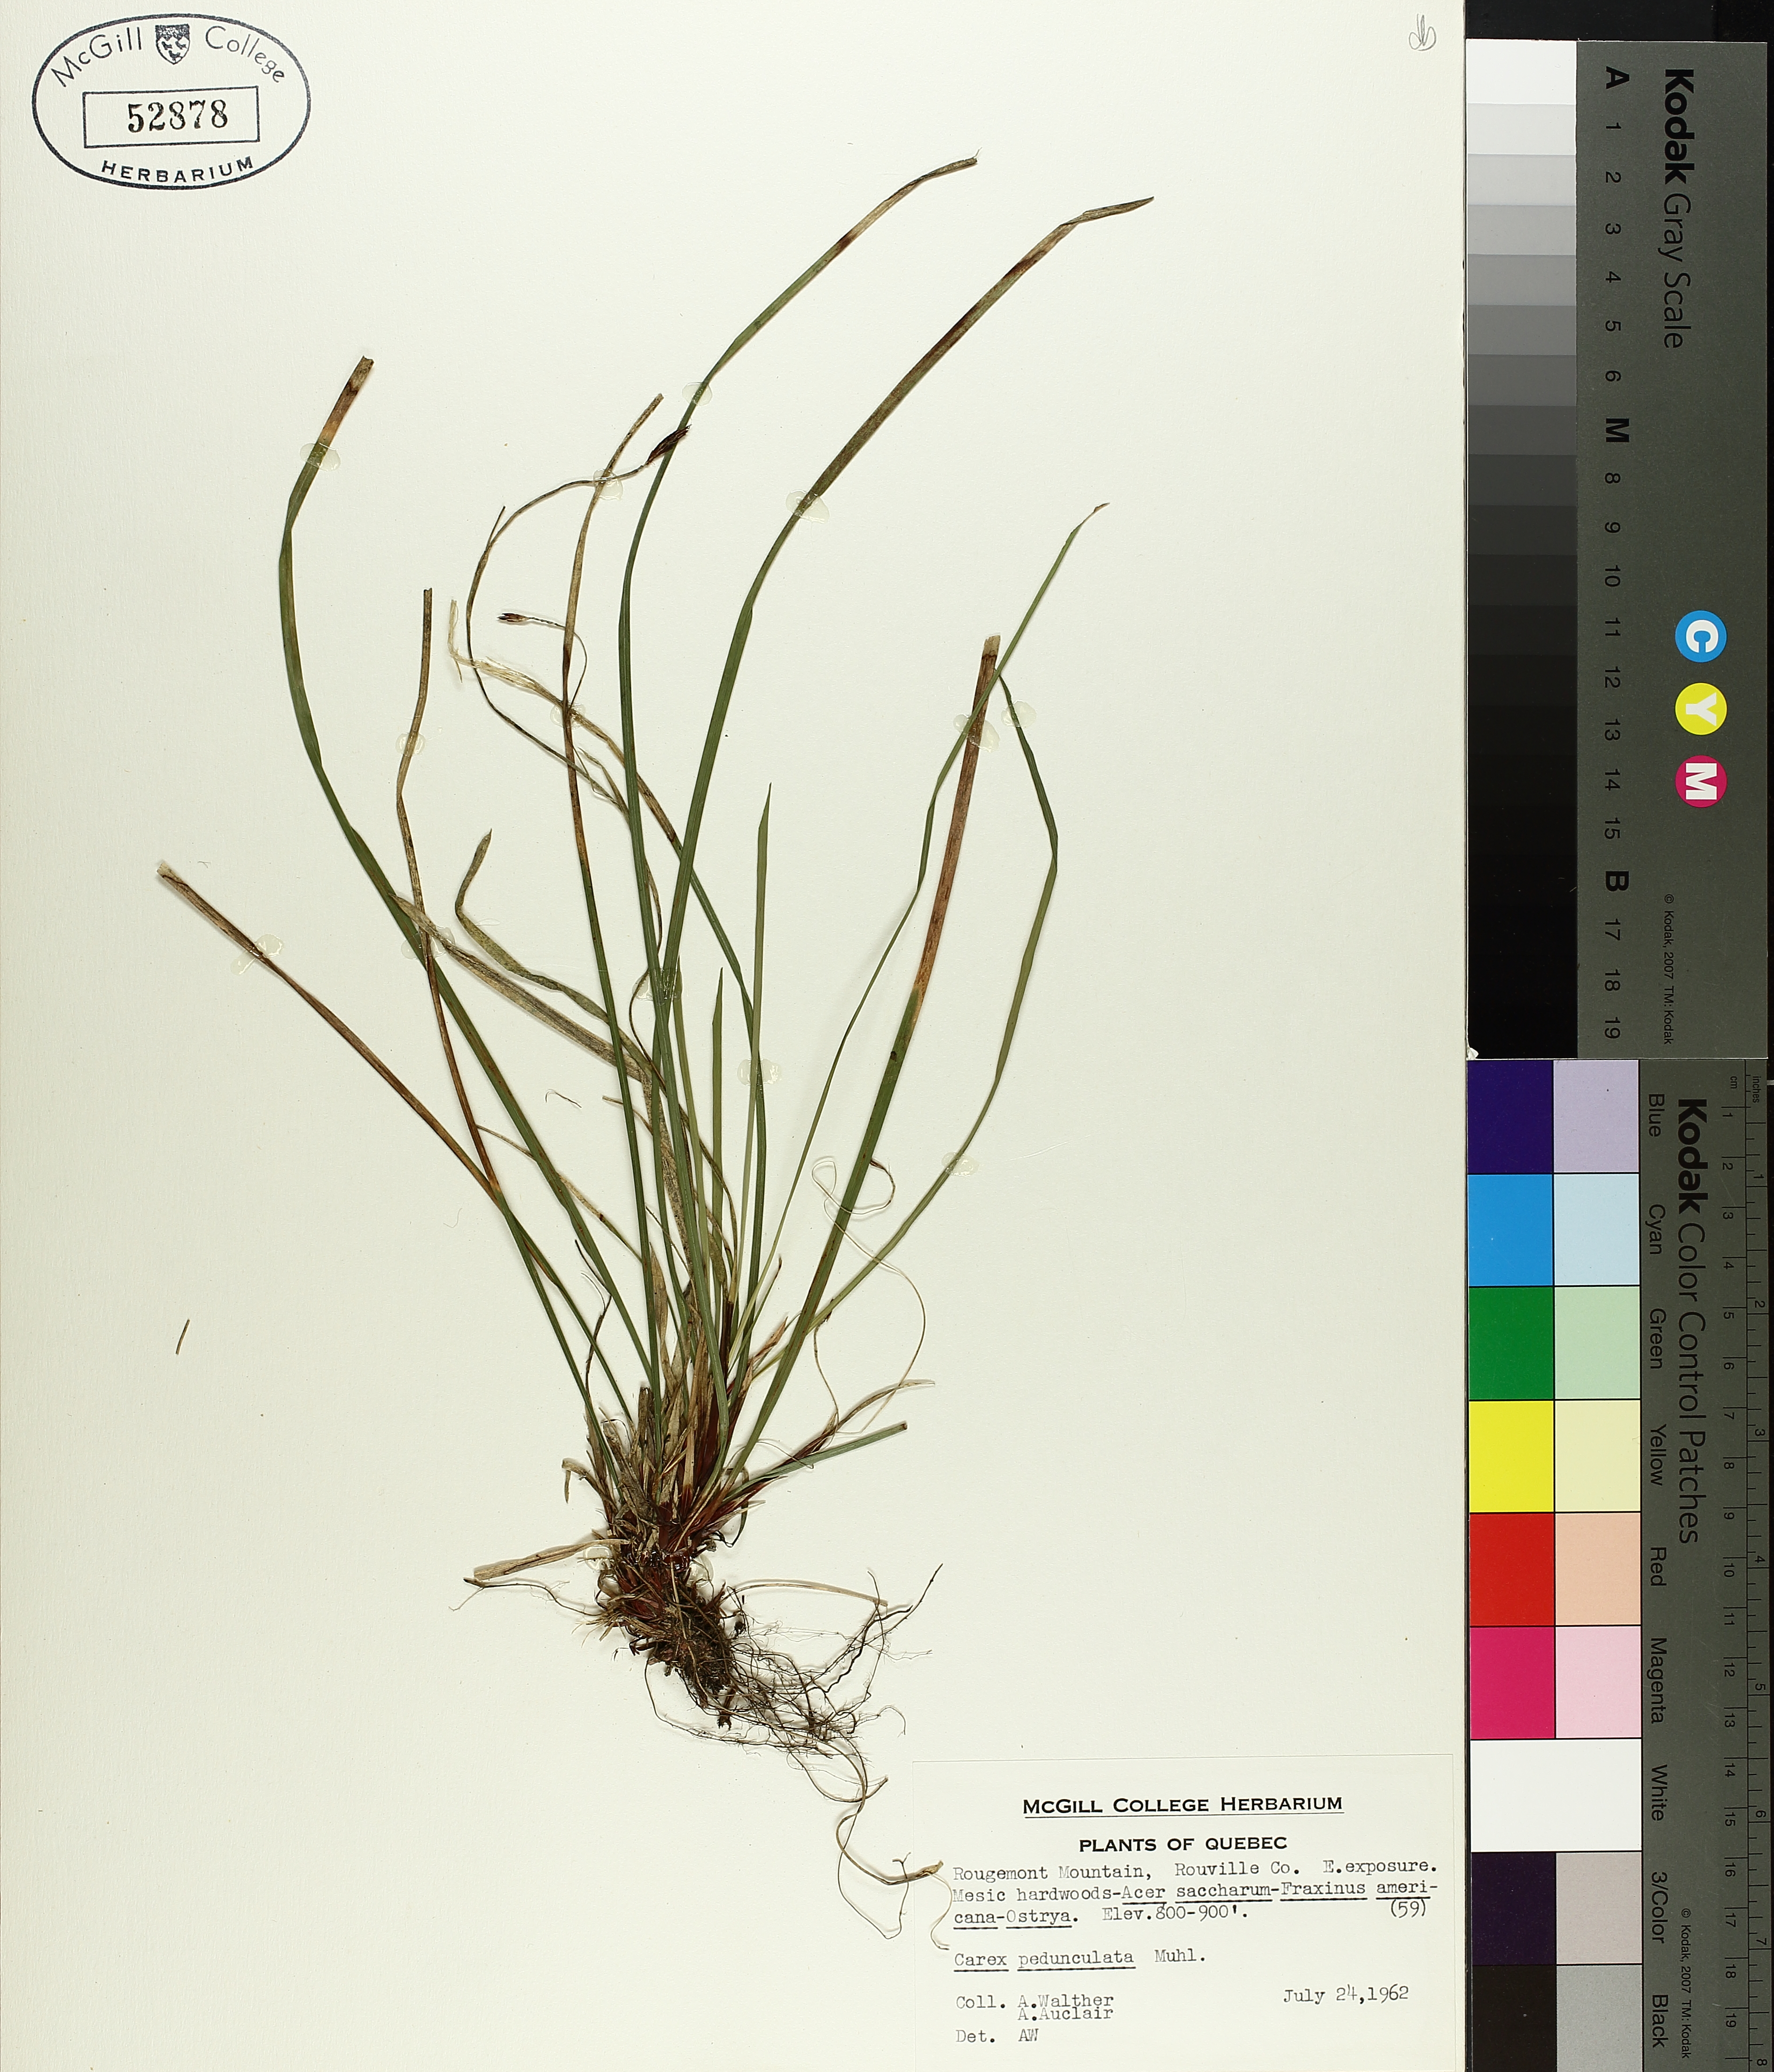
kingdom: Plantae
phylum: Tracheophyta
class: Liliopsida
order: Poales
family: Cyperaceae
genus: Carex
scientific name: Carex pedunculata
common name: Pedunculate sedge
